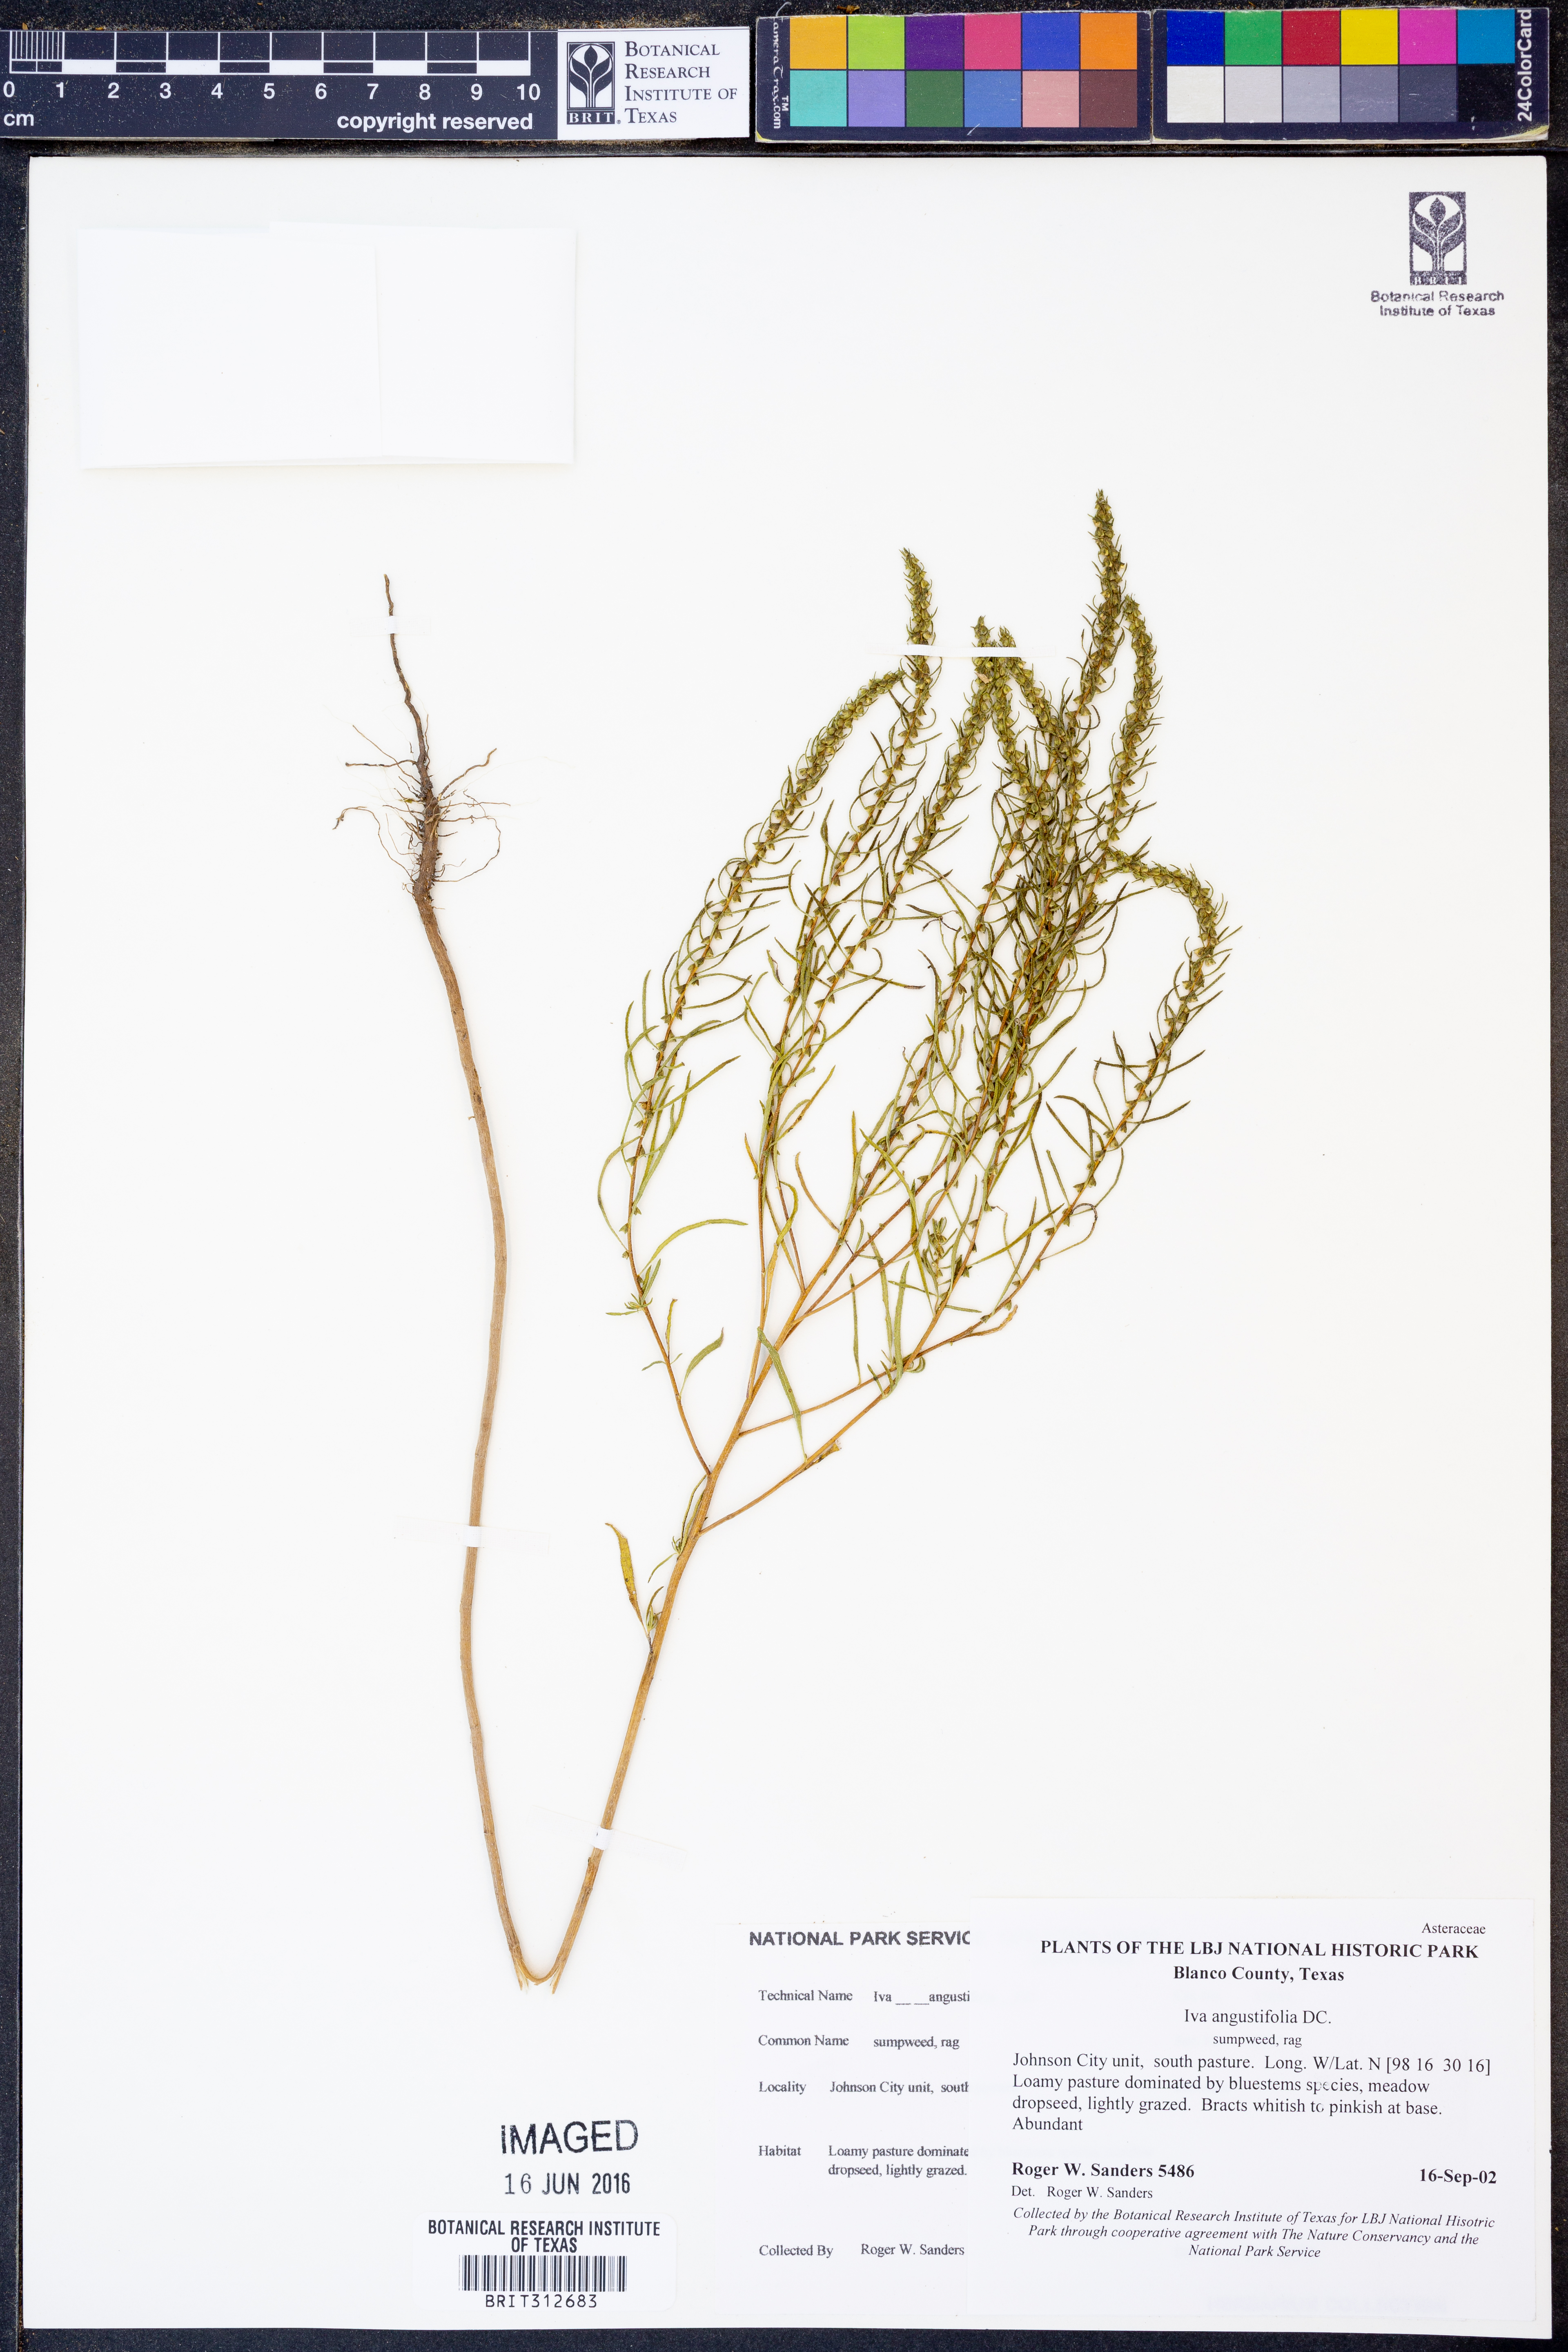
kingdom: Plantae
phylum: Tracheophyta
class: Magnoliopsida
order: Asterales
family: Asteraceae
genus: Iva
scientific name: Iva asperifolia
